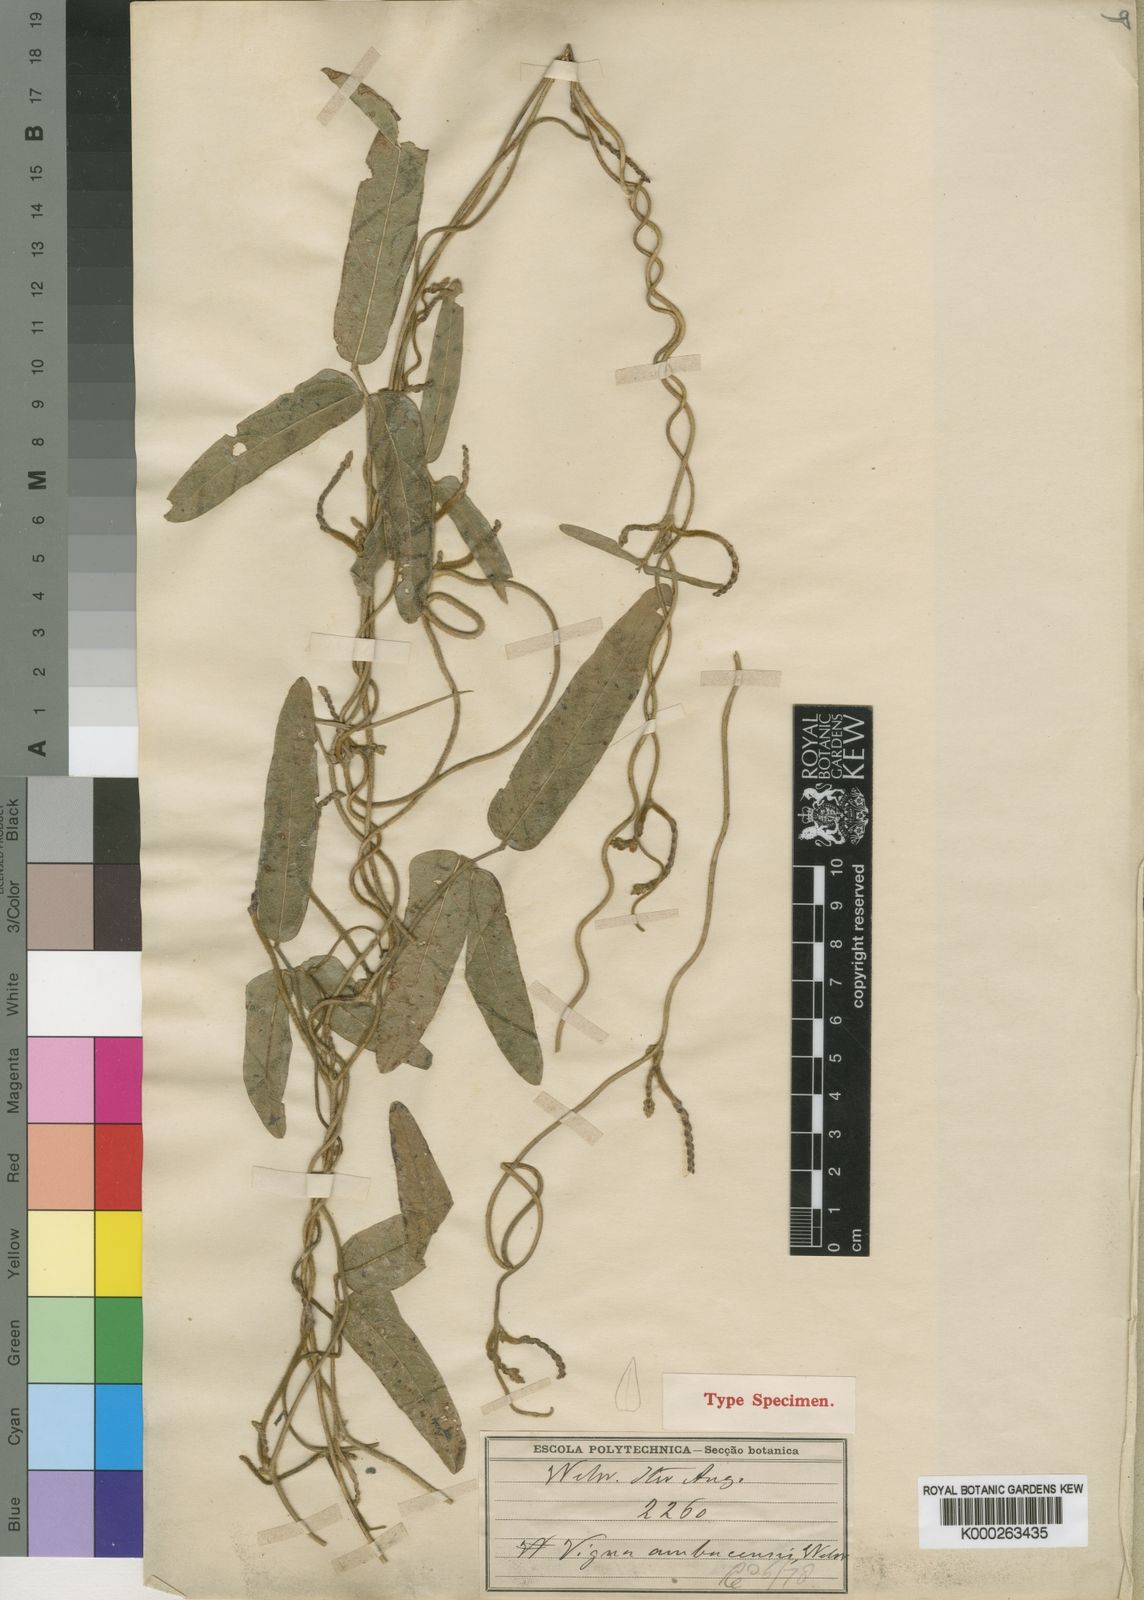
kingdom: Plantae
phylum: Tracheophyta
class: Magnoliopsida
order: Fabales
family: Fabaceae
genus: Vigna
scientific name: Vigna ambacensis
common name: Tsarkiyan zomo
